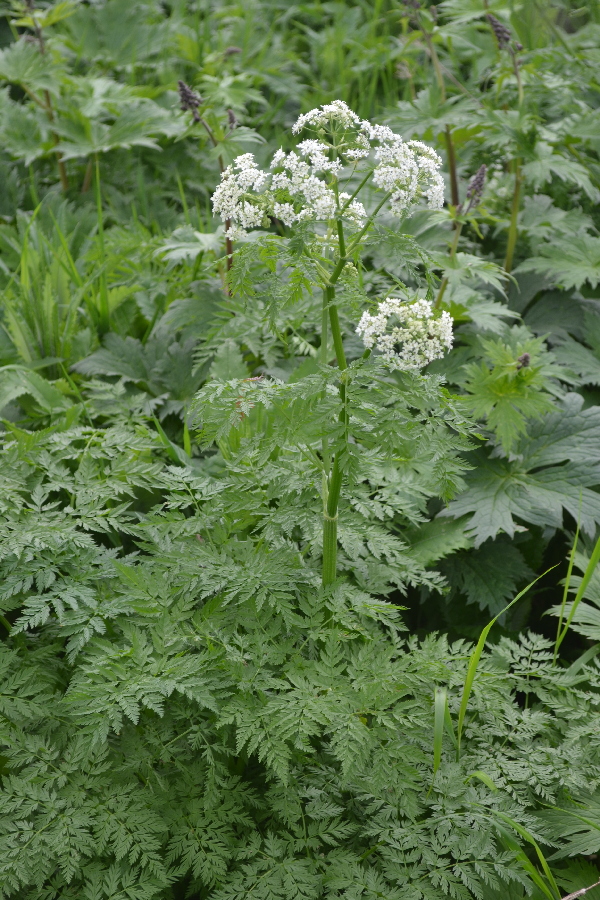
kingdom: Plantae
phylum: Tracheophyta
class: Magnoliopsida
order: Apiales
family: Apiaceae
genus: Anthriscus
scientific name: Anthriscus sylvestris
